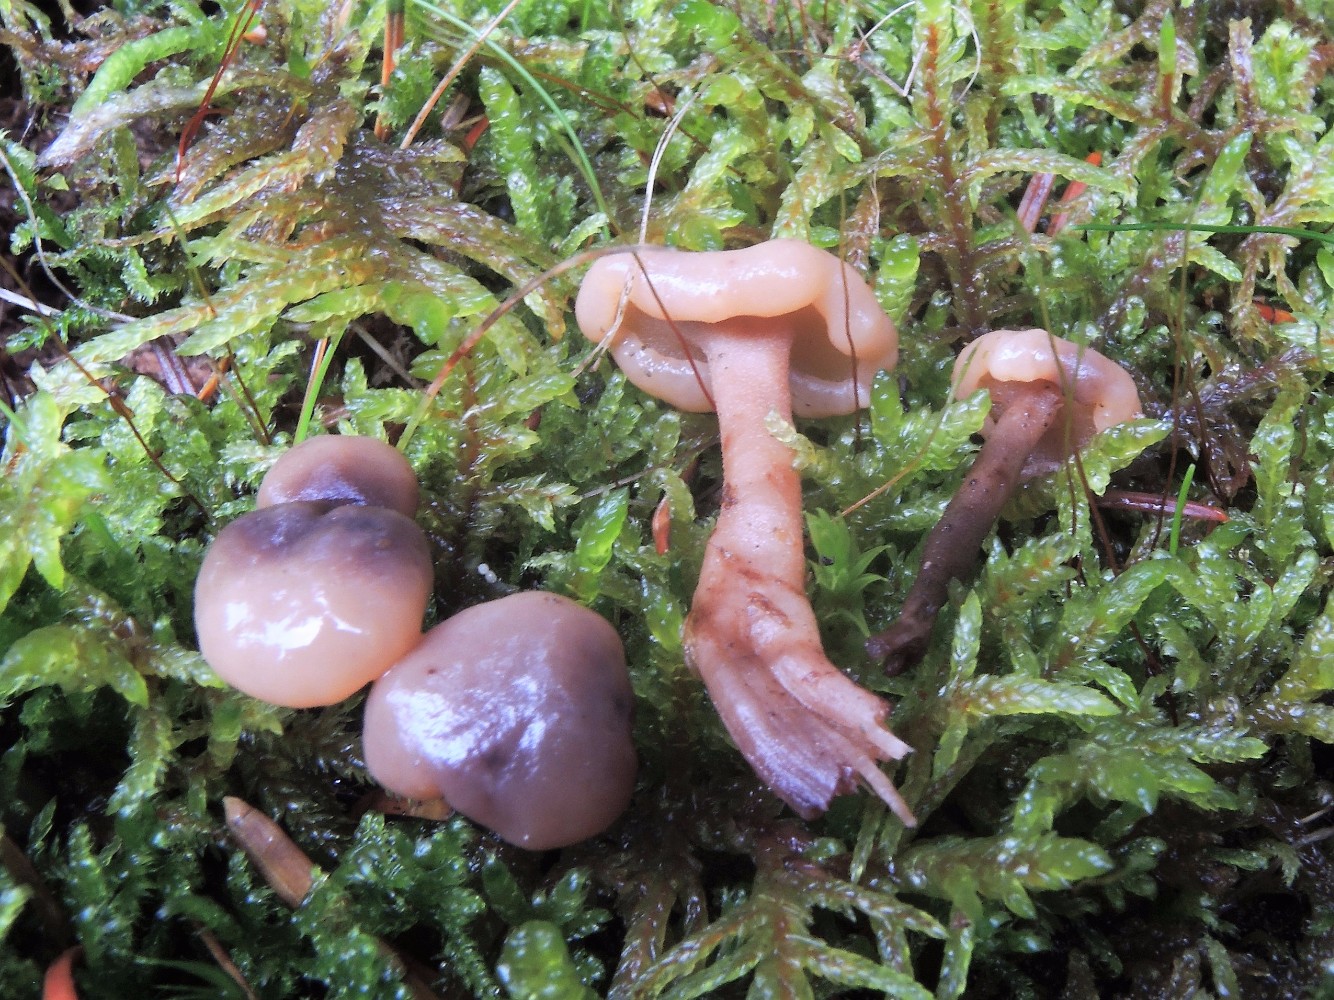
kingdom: Fungi
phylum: Ascomycota
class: Leotiomycetes
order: Rhytismatales
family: Cudoniaceae
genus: Cudonia
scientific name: Cudonia confusa
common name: ensfarvet hjelmmorkel
